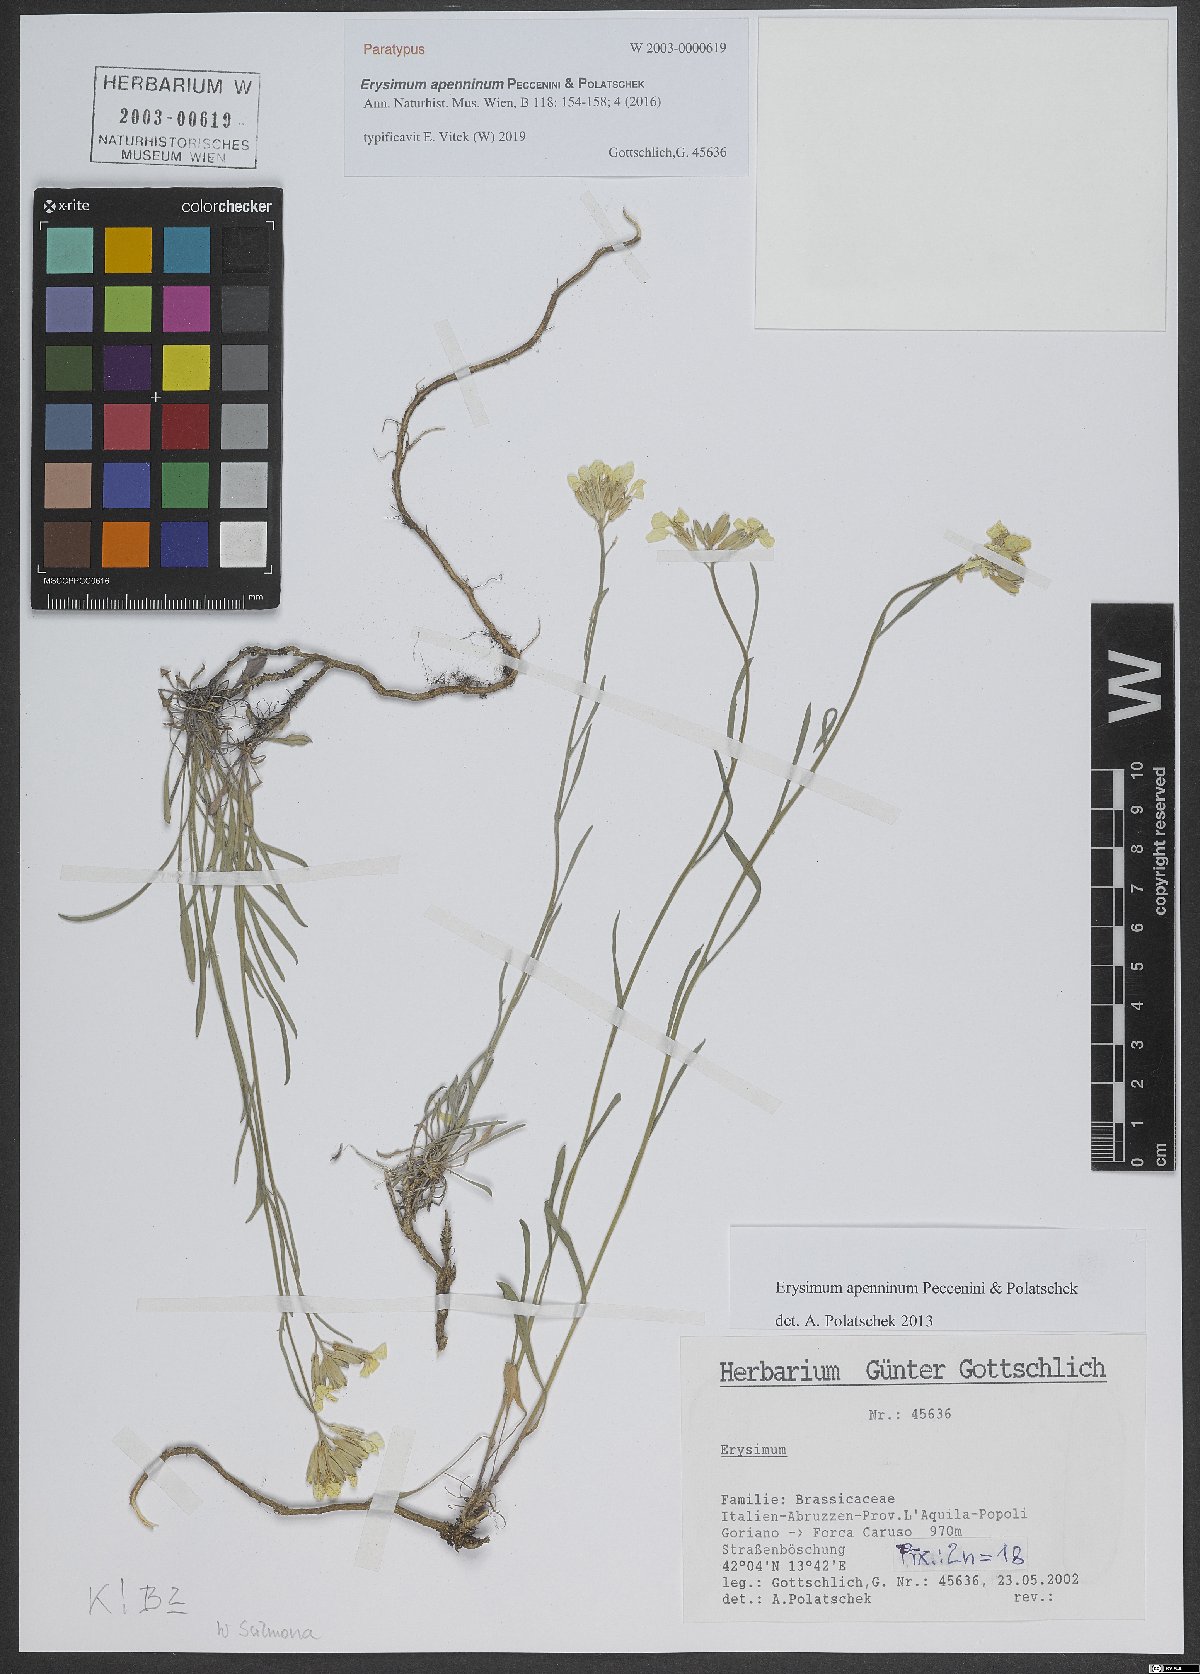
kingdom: Plantae
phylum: Tracheophyta
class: Magnoliopsida
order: Brassicales
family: Brassicaceae
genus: Erysimum
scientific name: Erysimum apenninum
